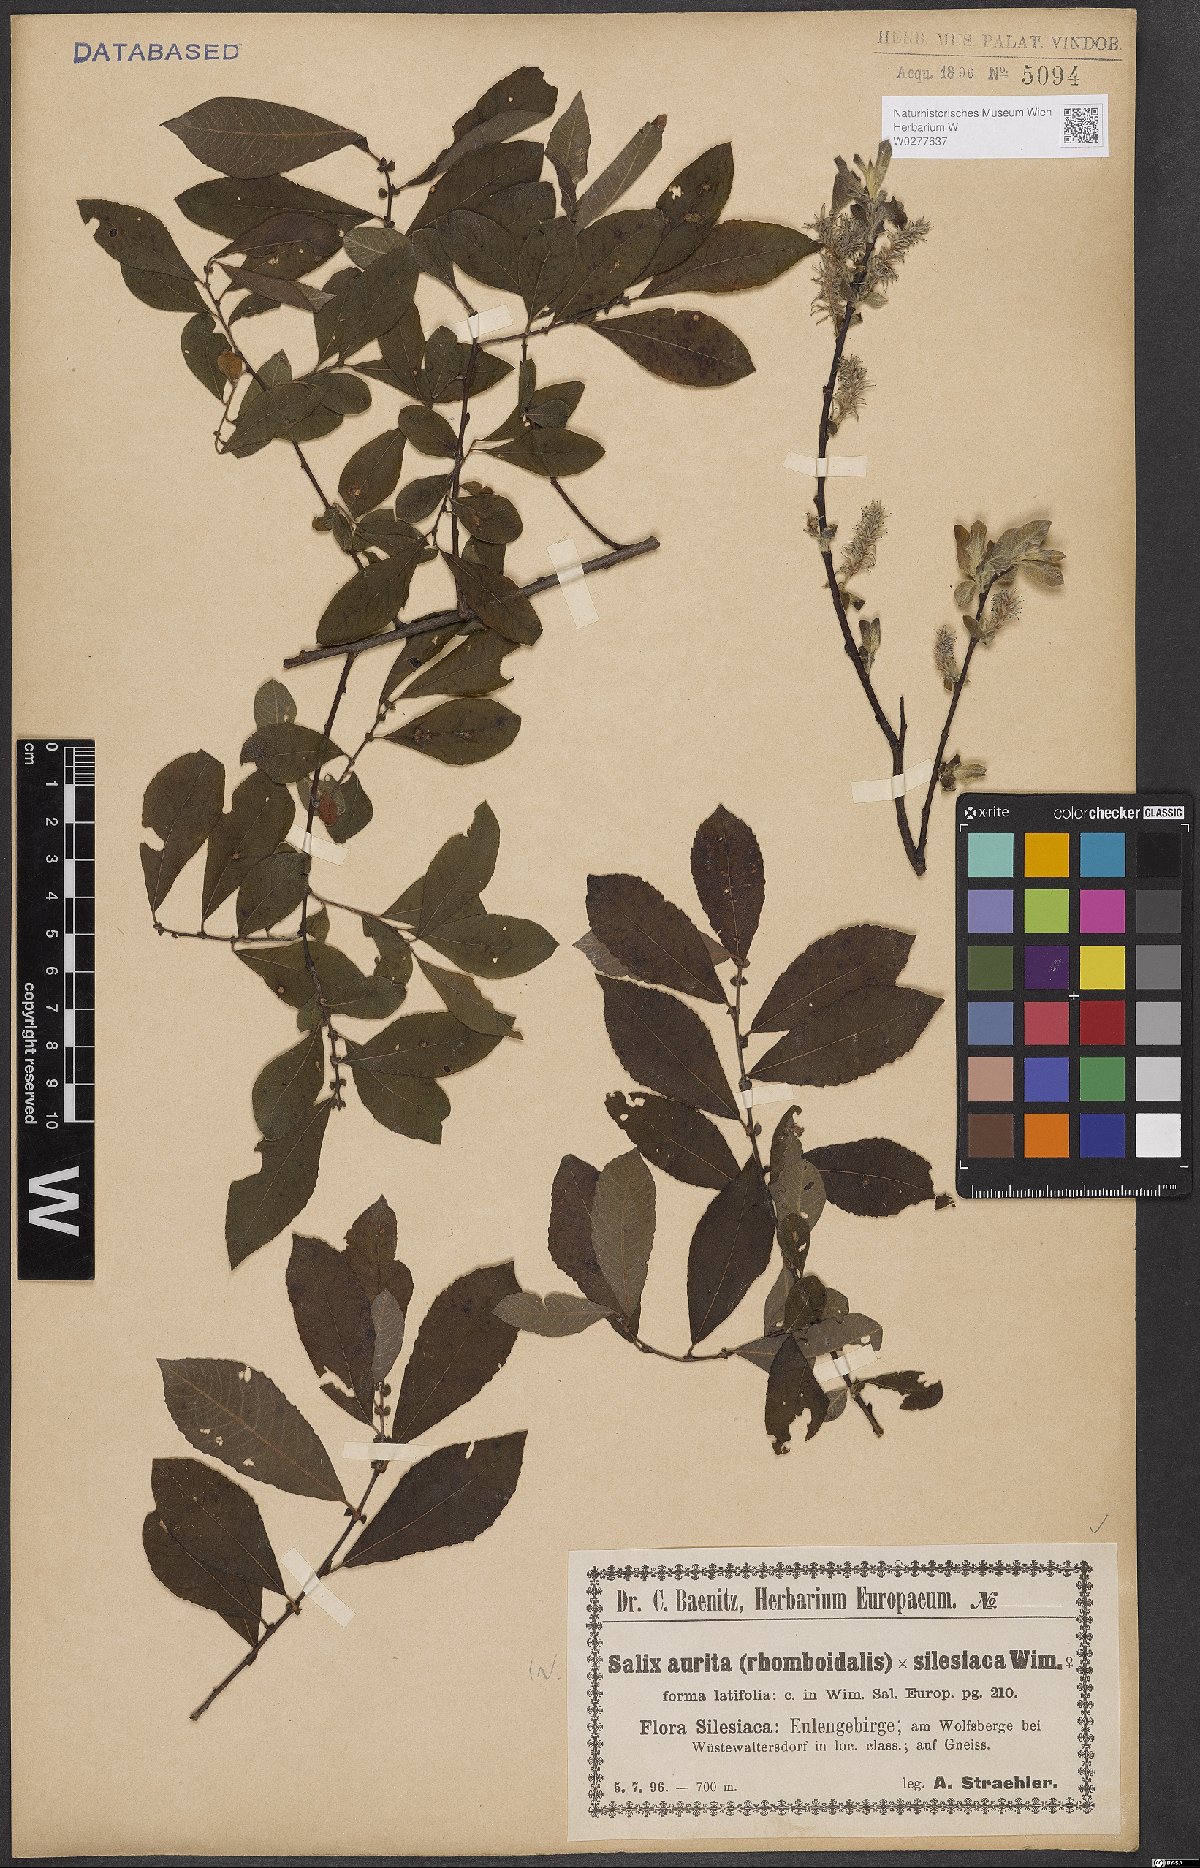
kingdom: Plantae
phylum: Tracheophyta
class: Magnoliopsida
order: Malpighiales
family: Salicaceae
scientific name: Salicaceae
